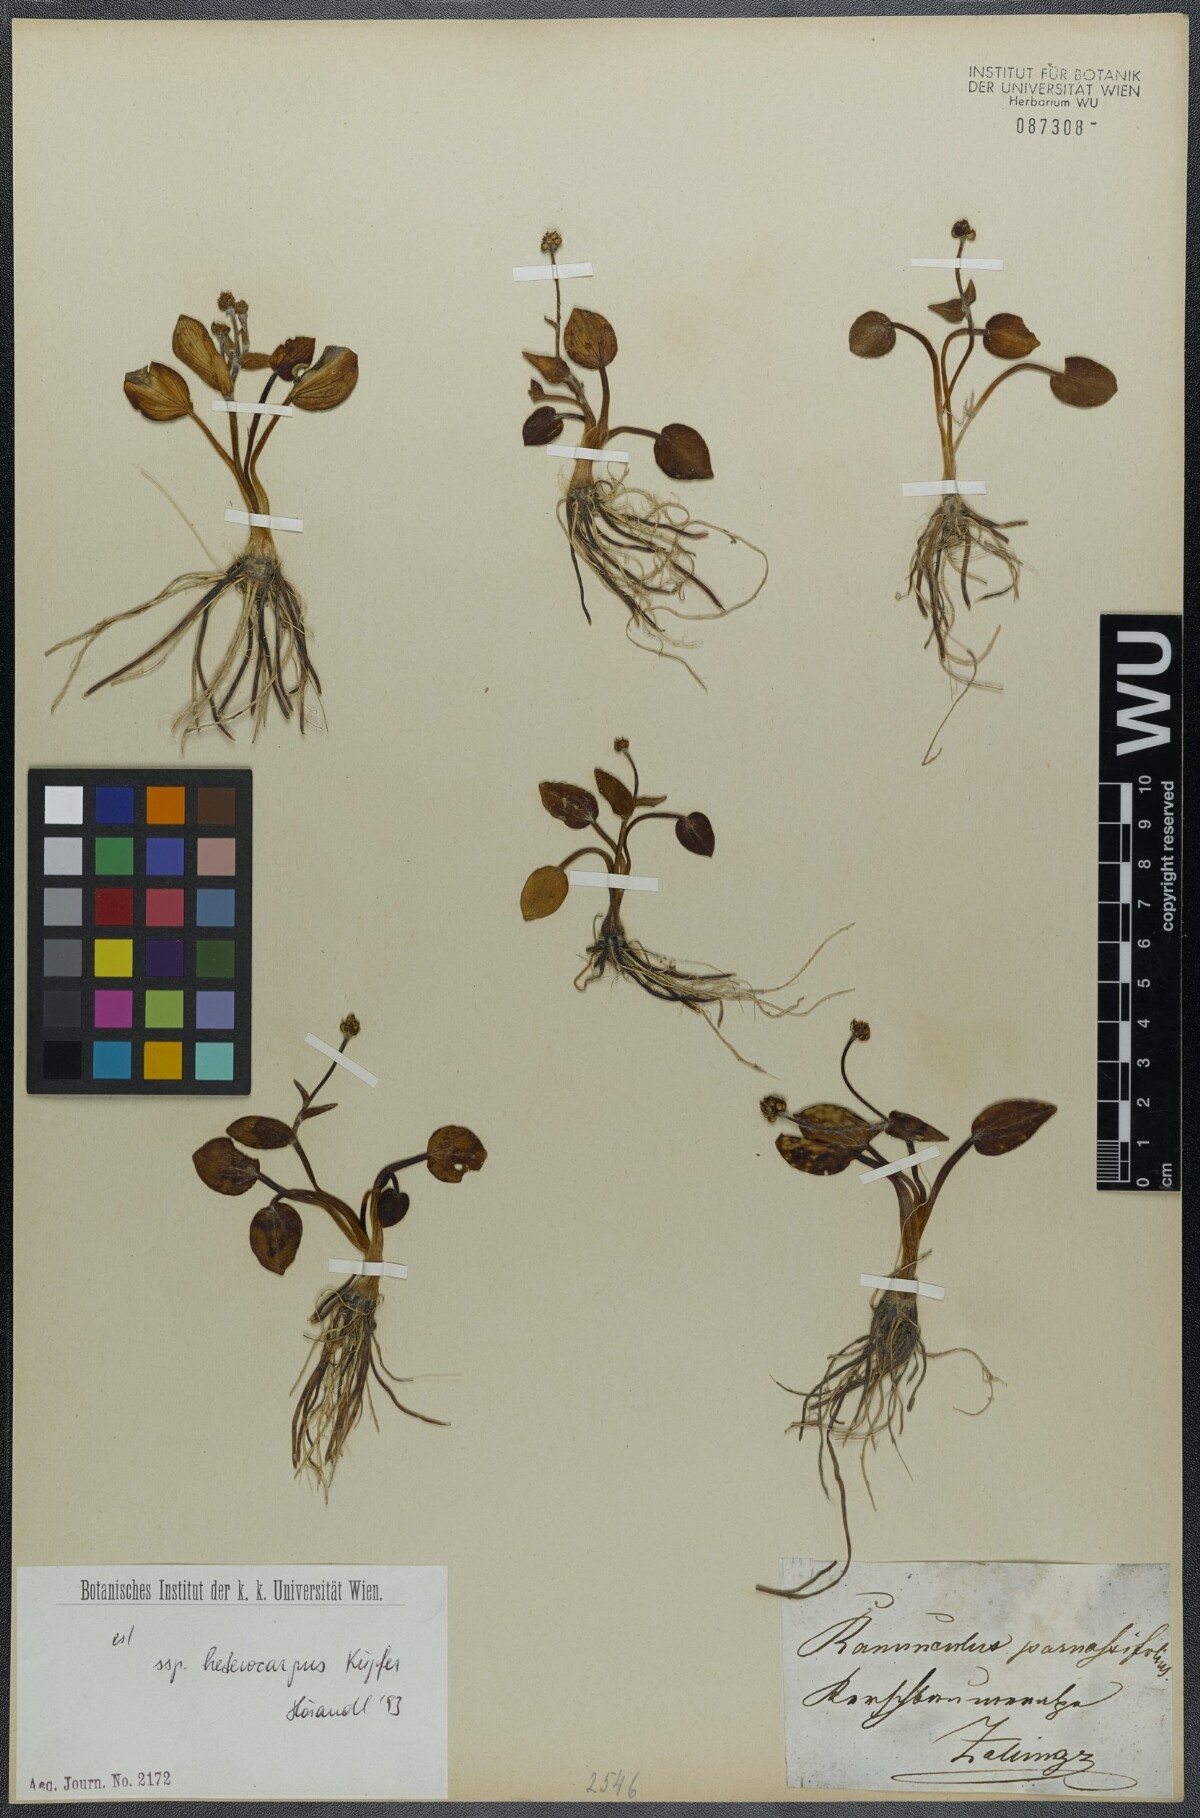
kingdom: Plantae
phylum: Tracheophyta
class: Magnoliopsida
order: Ranunculales
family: Ranunculaceae
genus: Ranunculus
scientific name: Ranunculus parnassiifolius
